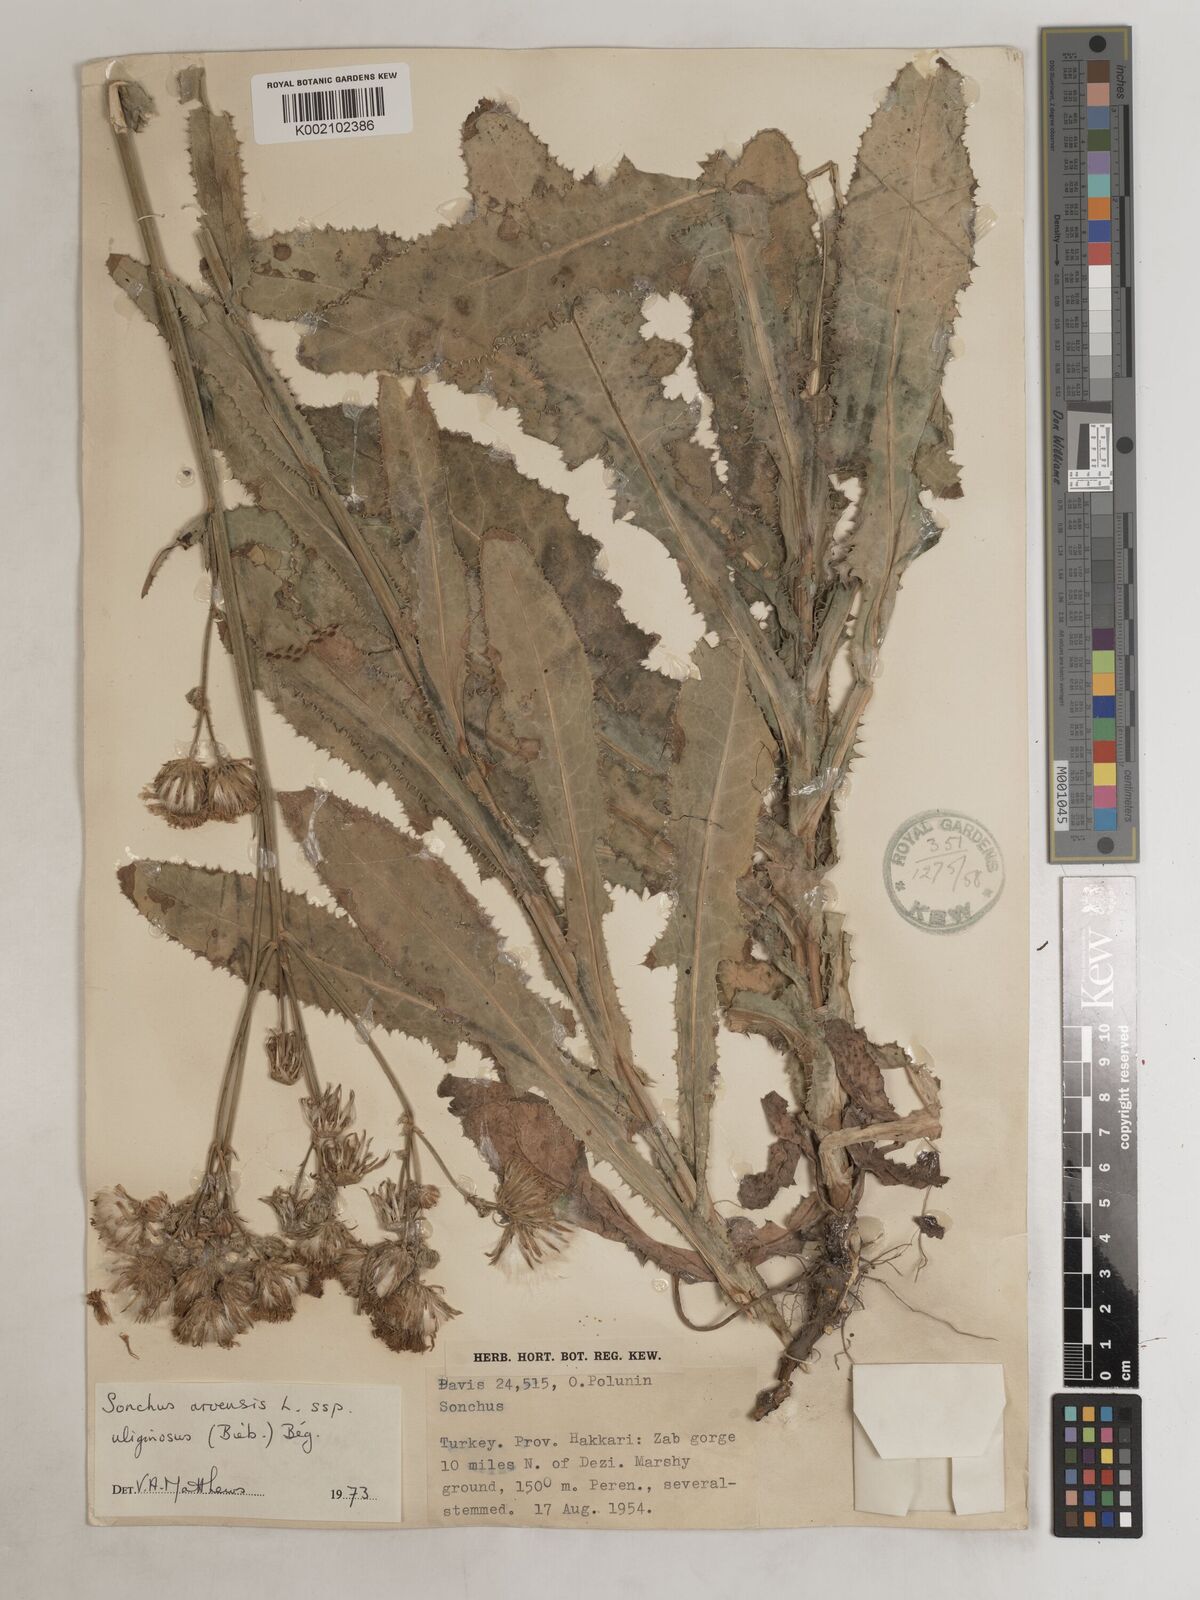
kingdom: Plantae
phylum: Tracheophyta
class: Magnoliopsida
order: Asterales
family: Asteraceae
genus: Sonchus
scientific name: Sonchus arvensis
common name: Perennial sow-thistle
